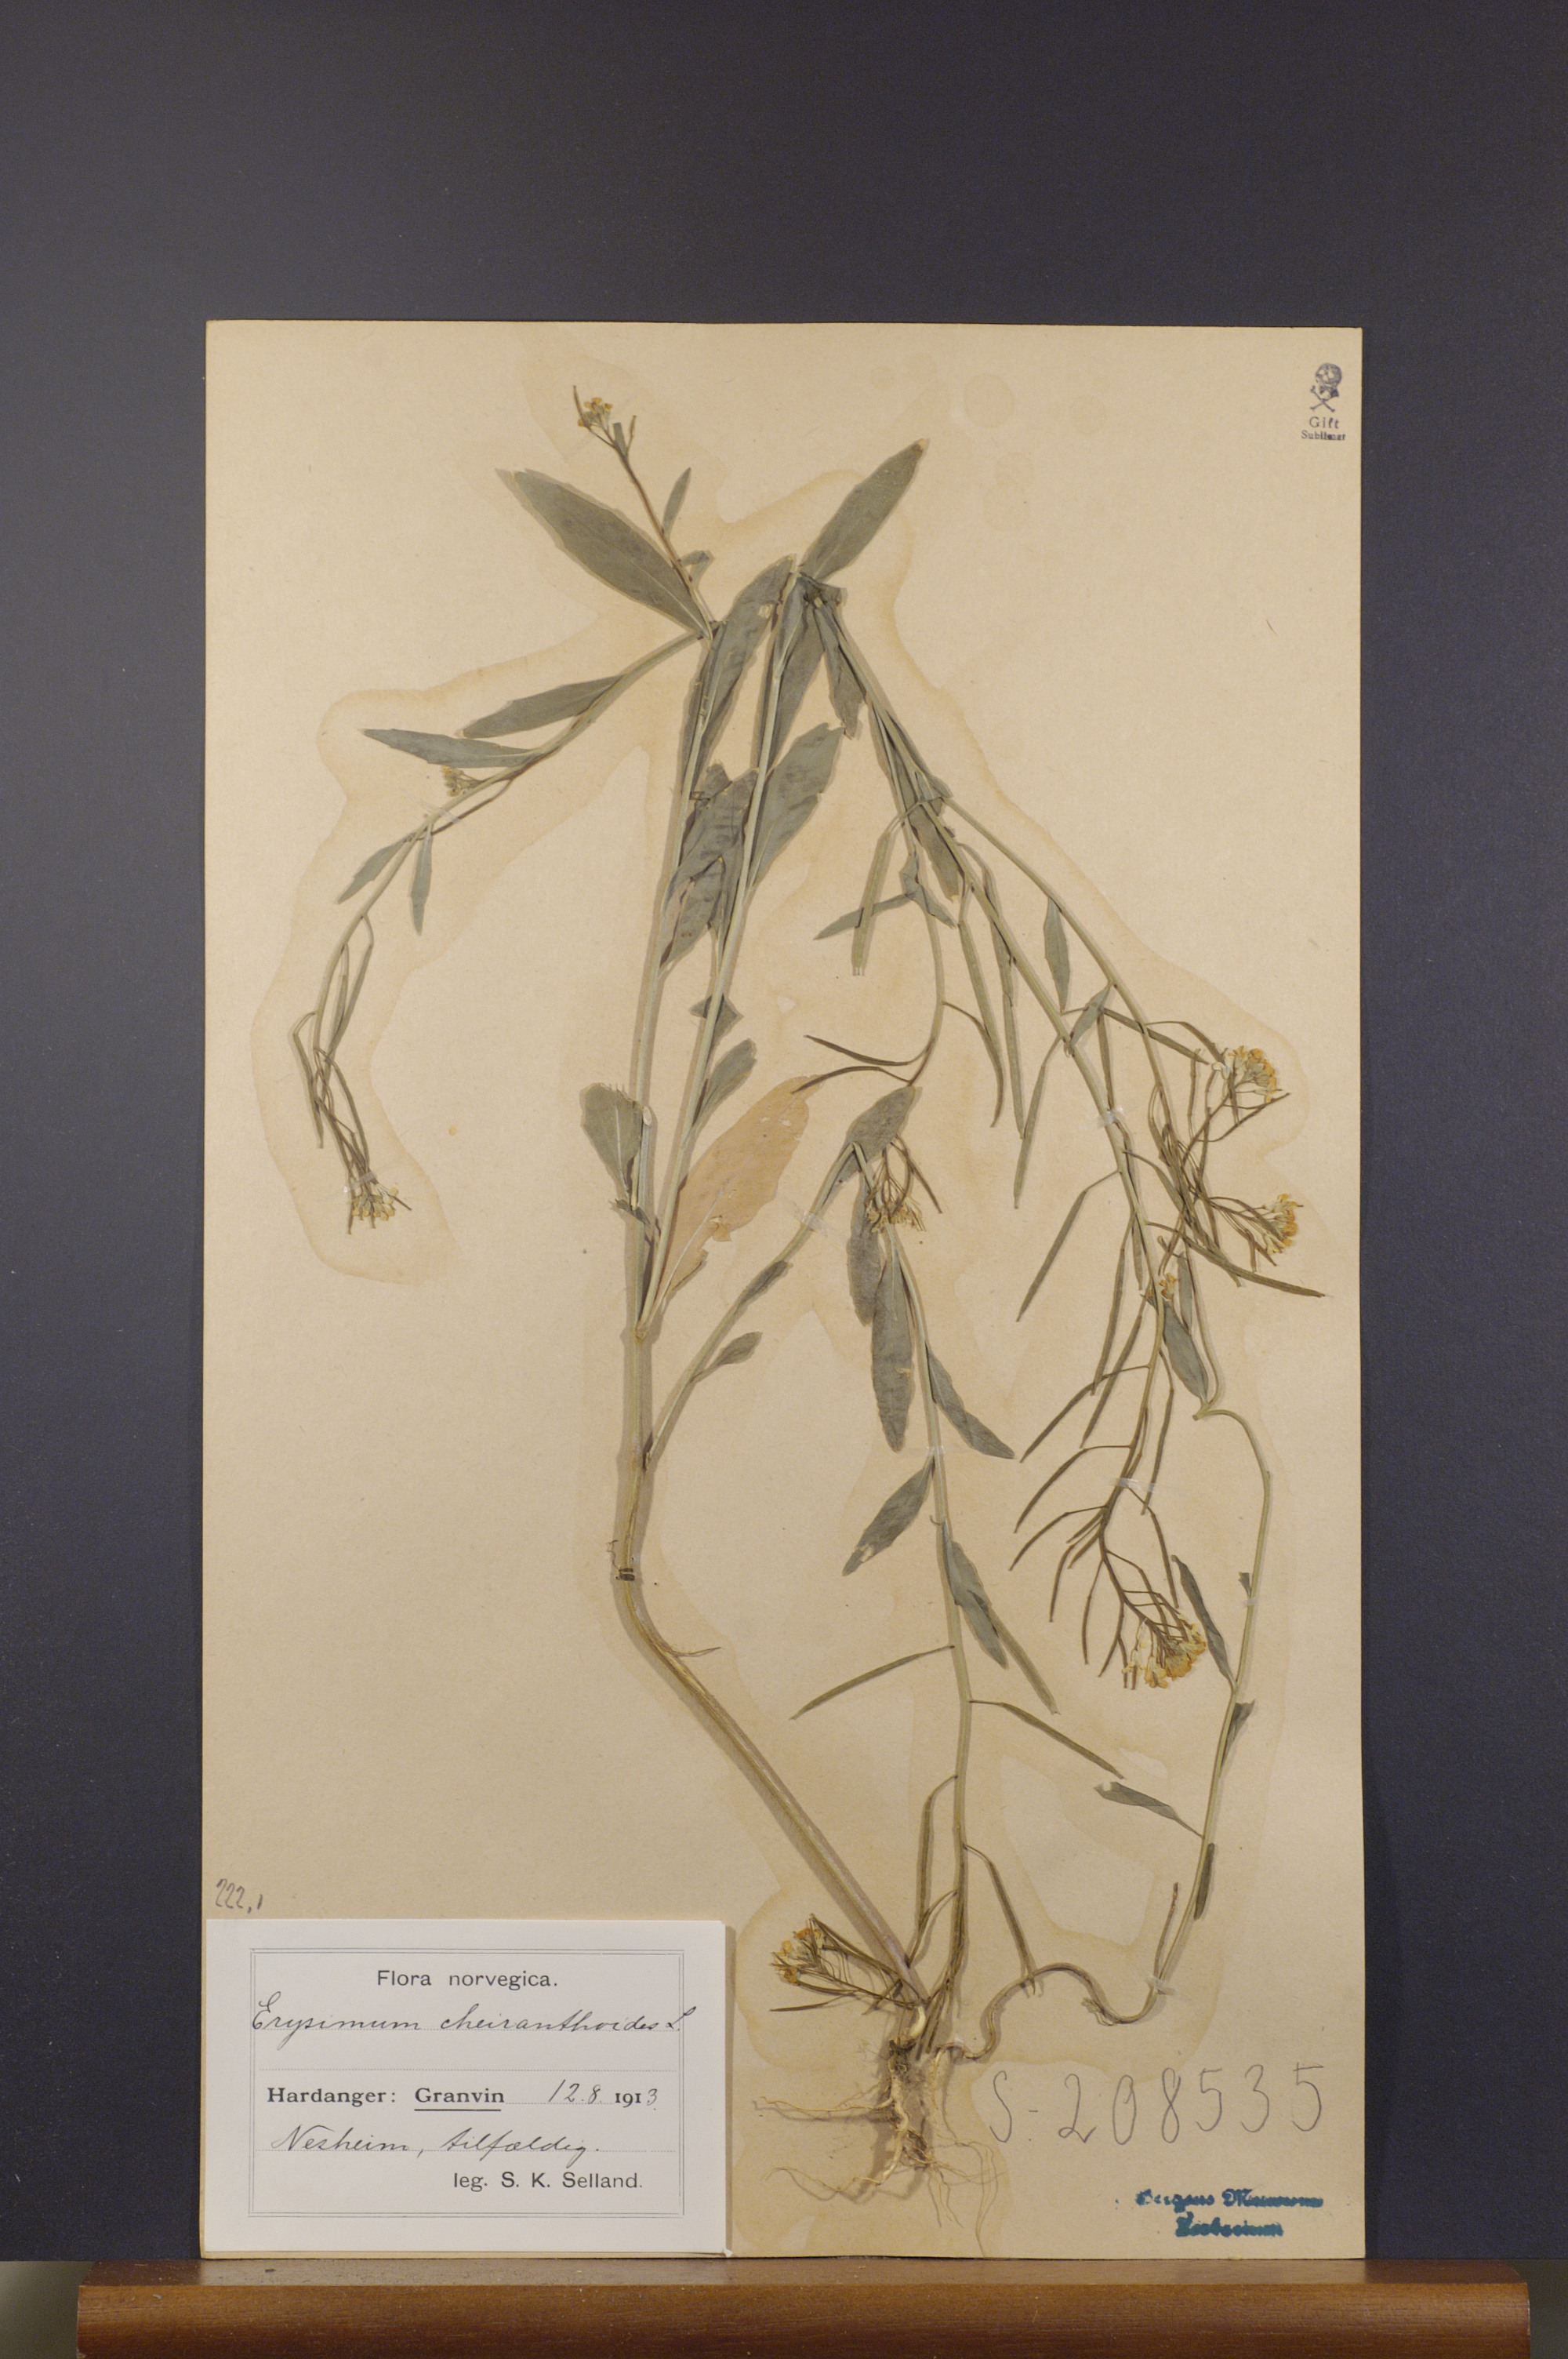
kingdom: Plantae
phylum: Tracheophyta
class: Magnoliopsida
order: Brassicales
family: Brassicaceae
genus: Erysimum
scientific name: Erysimum cheiranthoides
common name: Treacle mustard
